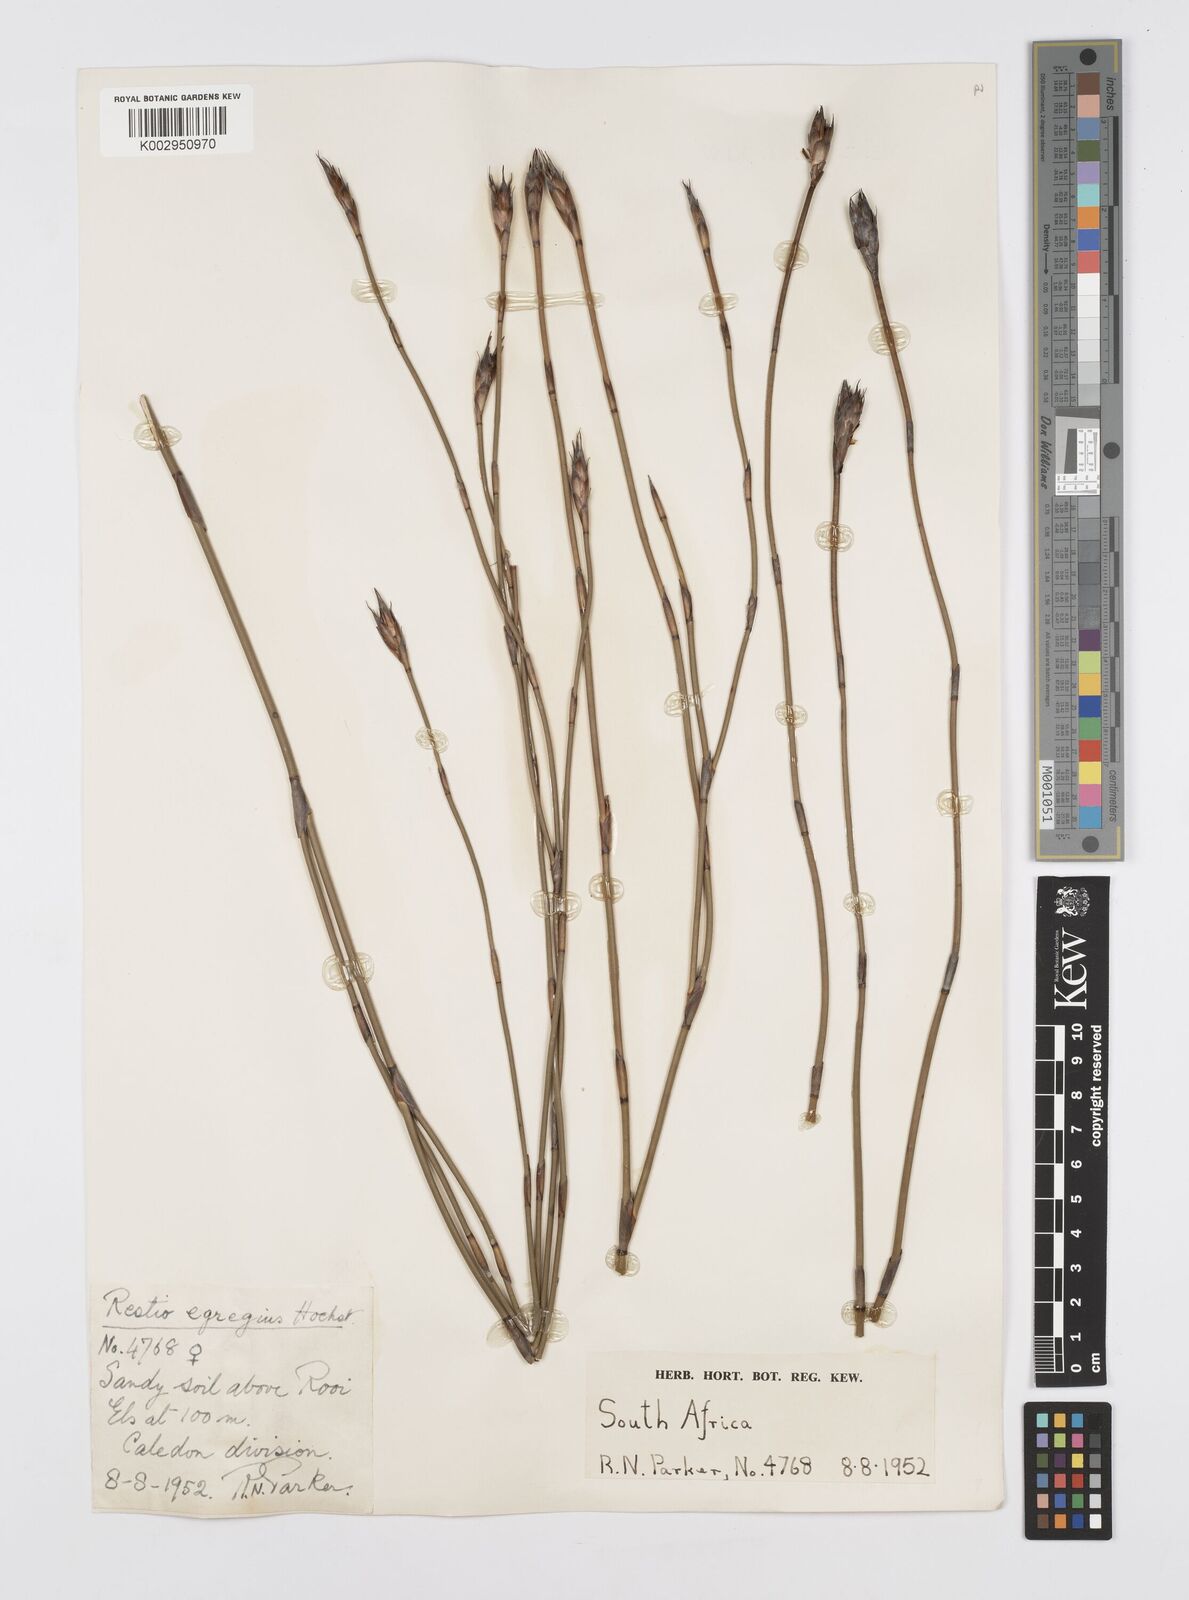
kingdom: Plantae
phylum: Tracheophyta
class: Liliopsida
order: Poales
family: Restionaceae
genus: Restio
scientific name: Restio egregius
